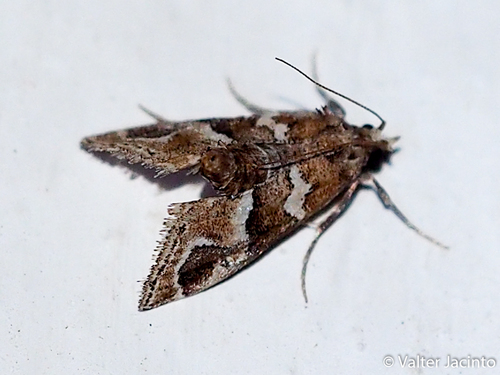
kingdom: Animalia
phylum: Arthropoda
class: Insecta
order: Lepidoptera
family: Pyralidae
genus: Hypotia
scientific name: Hypotia corticalis
